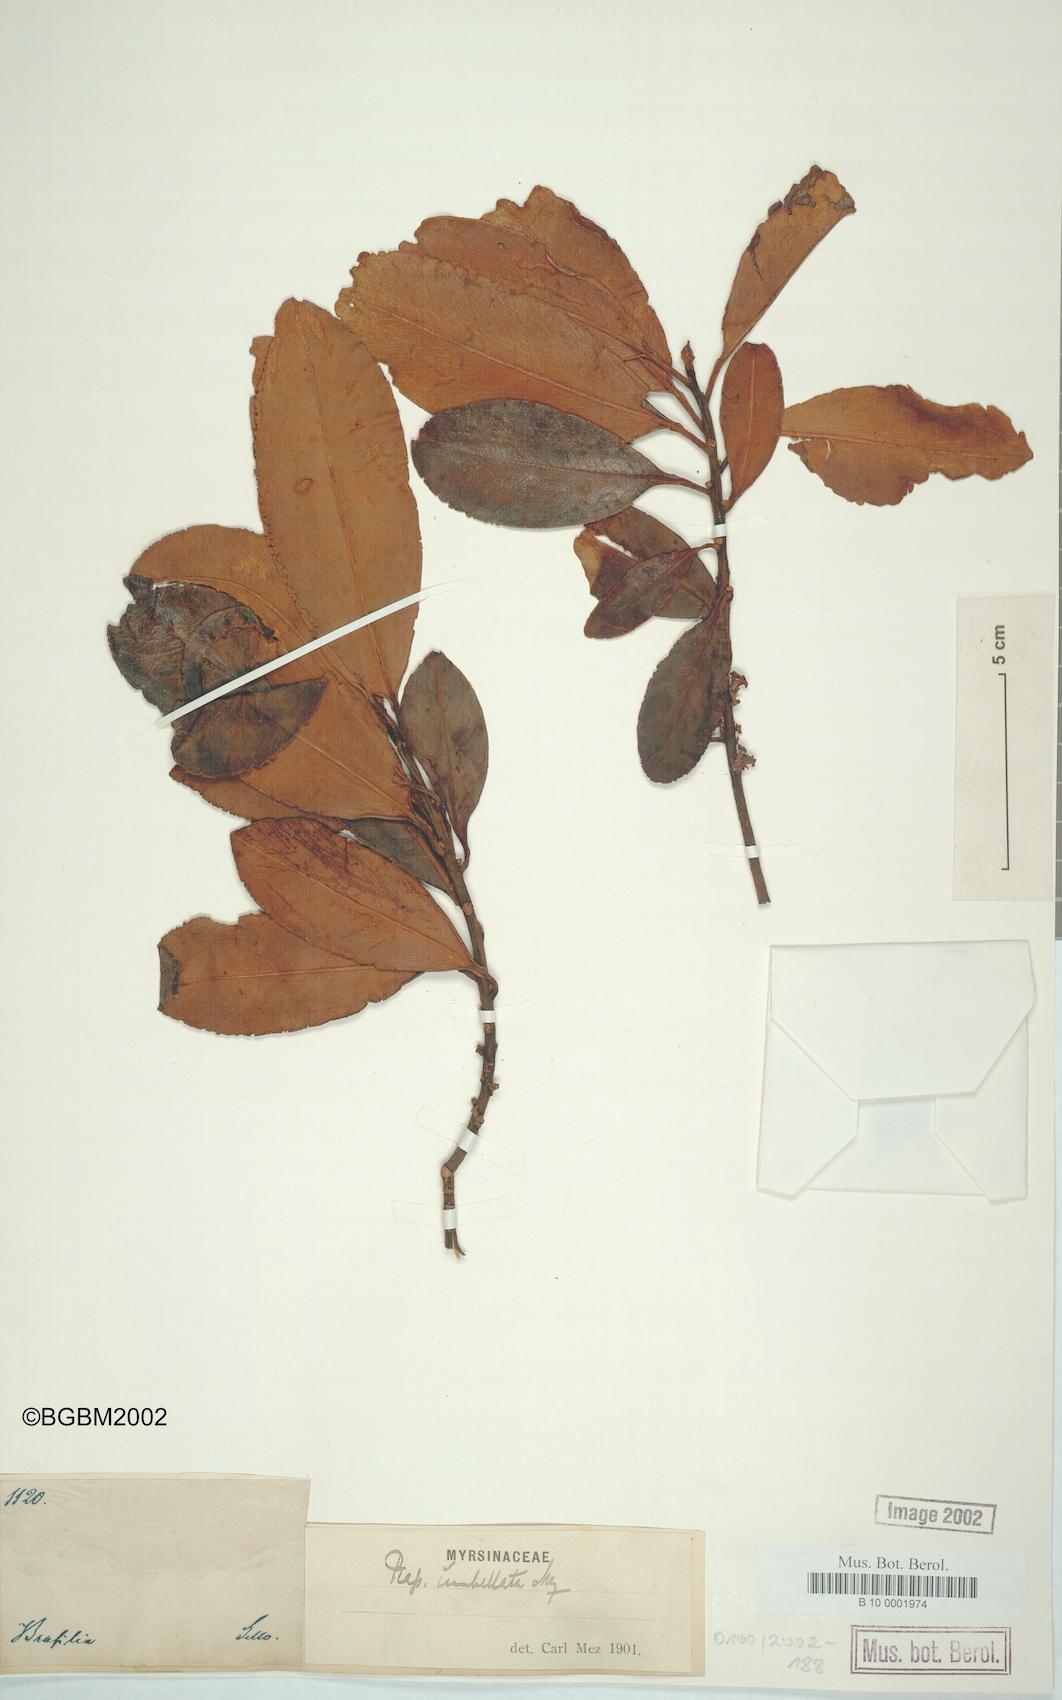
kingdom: Plantae
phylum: Tracheophyta
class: Magnoliopsida
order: Ericales
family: Primulaceae
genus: Myrsine
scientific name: Myrsine umbellata
